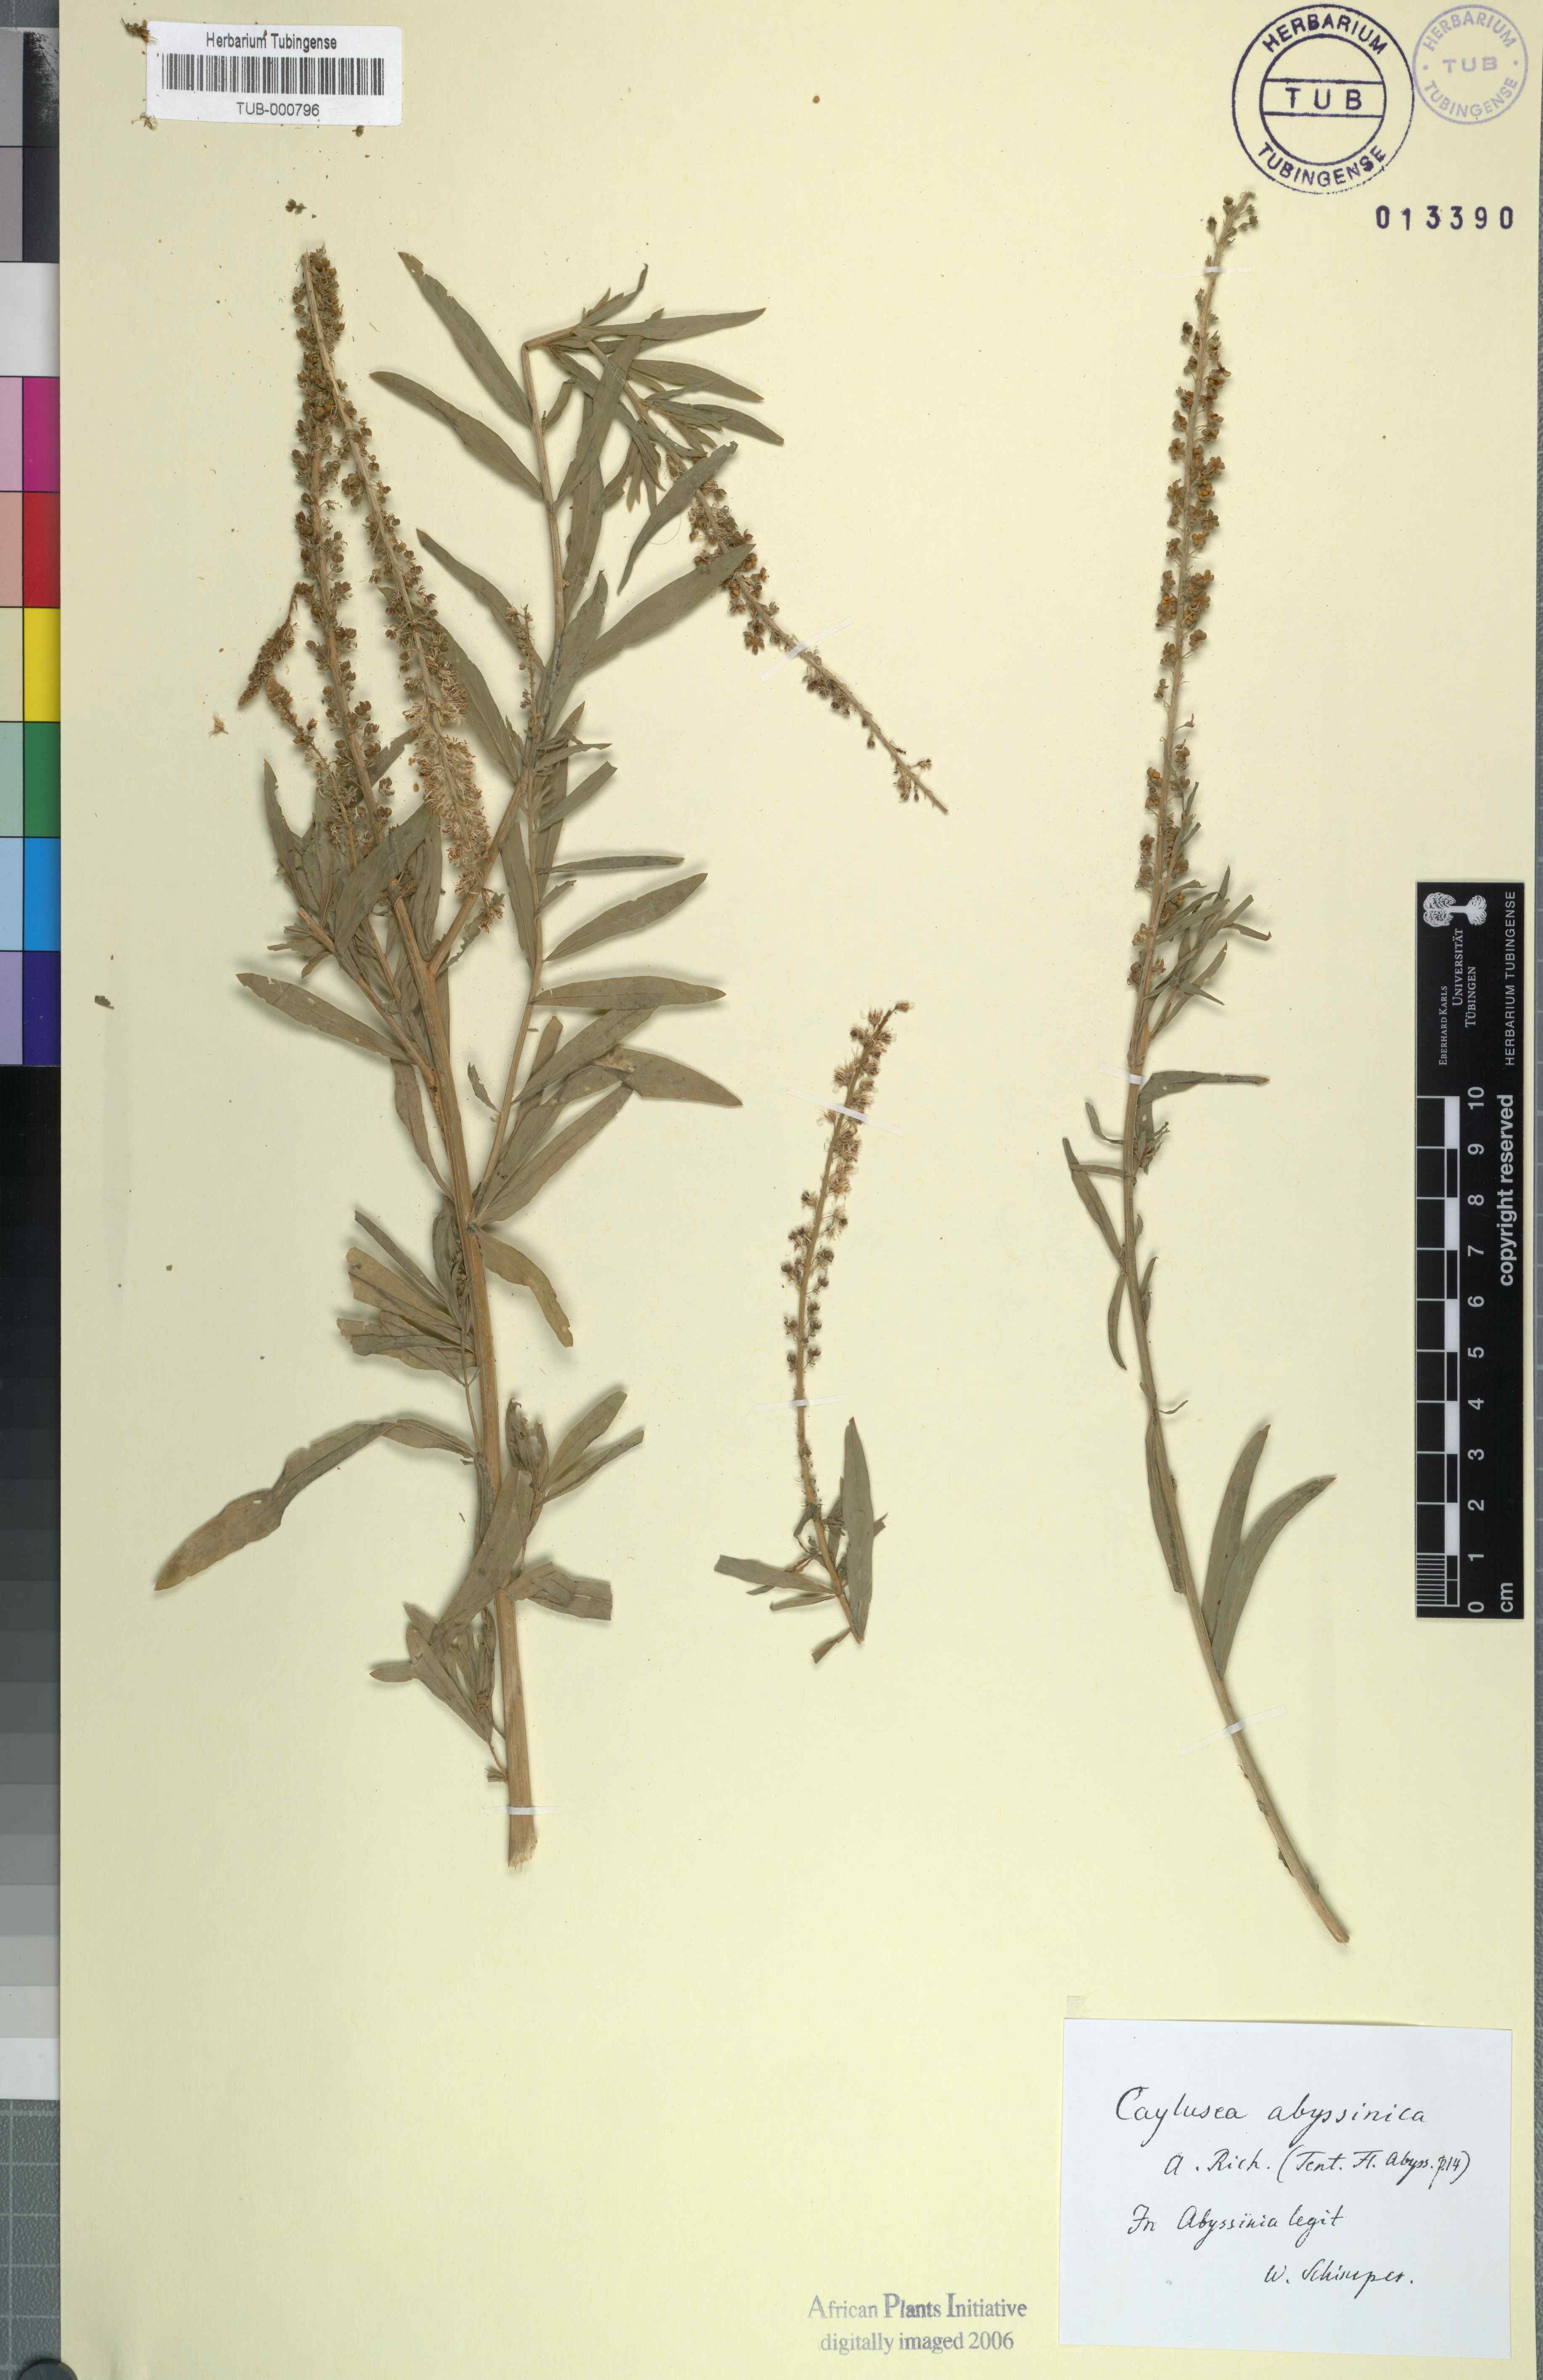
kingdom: Plantae
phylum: Tracheophyta
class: Magnoliopsida
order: Brassicales
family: Resedaceae
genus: Caylusea
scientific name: Caylusea abyssinica
